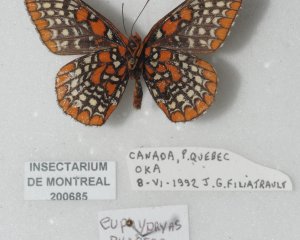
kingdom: Animalia
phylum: Arthropoda
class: Insecta
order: Lepidoptera
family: Nymphalidae
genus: Euphydryas
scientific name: Euphydryas phaeton
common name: Baltimore Checkerspot
